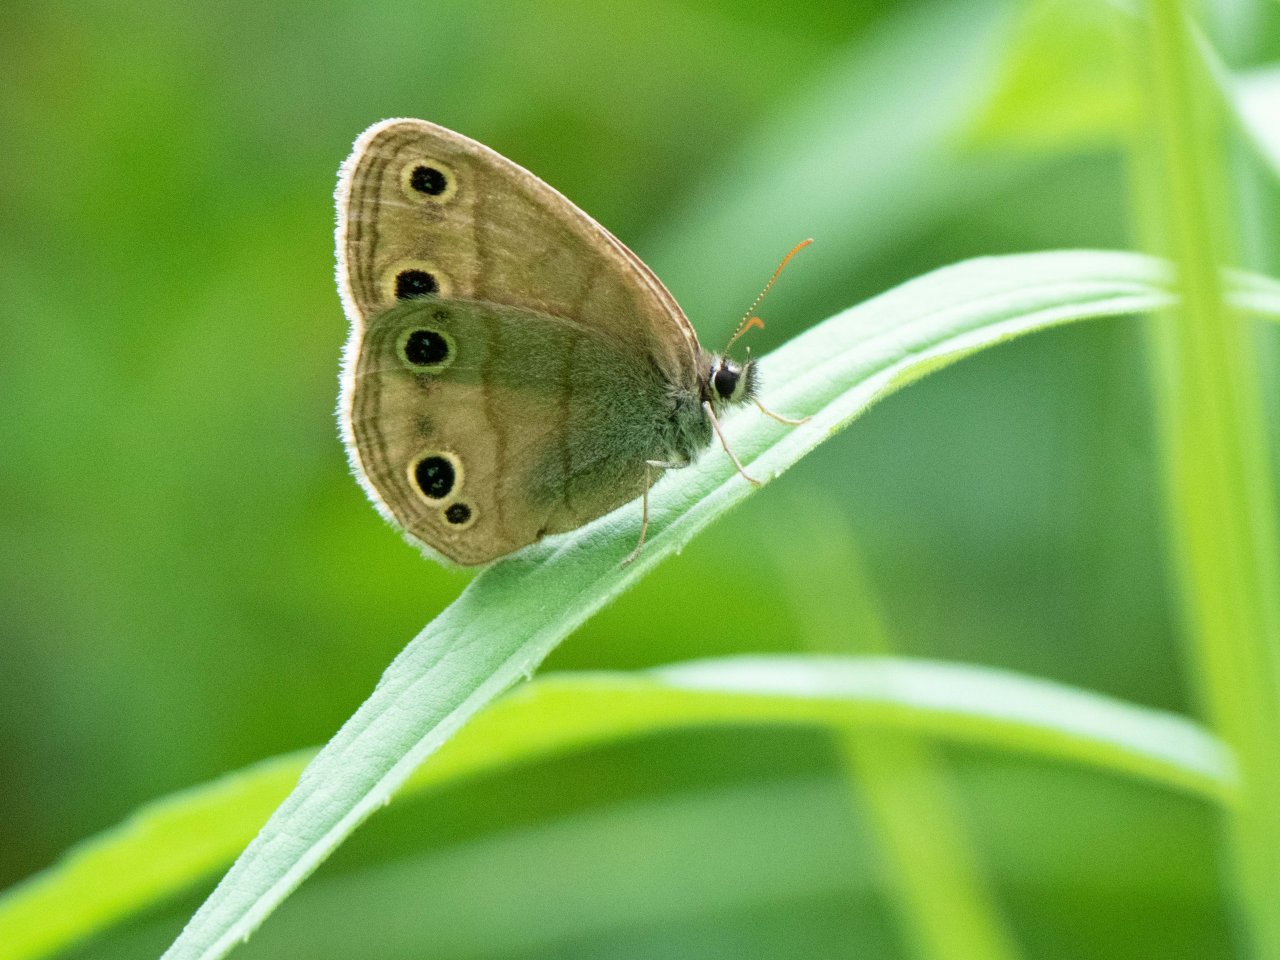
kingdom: Animalia
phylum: Arthropoda
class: Insecta
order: Lepidoptera
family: Nymphalidae
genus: Euptychia
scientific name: Euptychia cymela
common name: Little Wood Satyr
